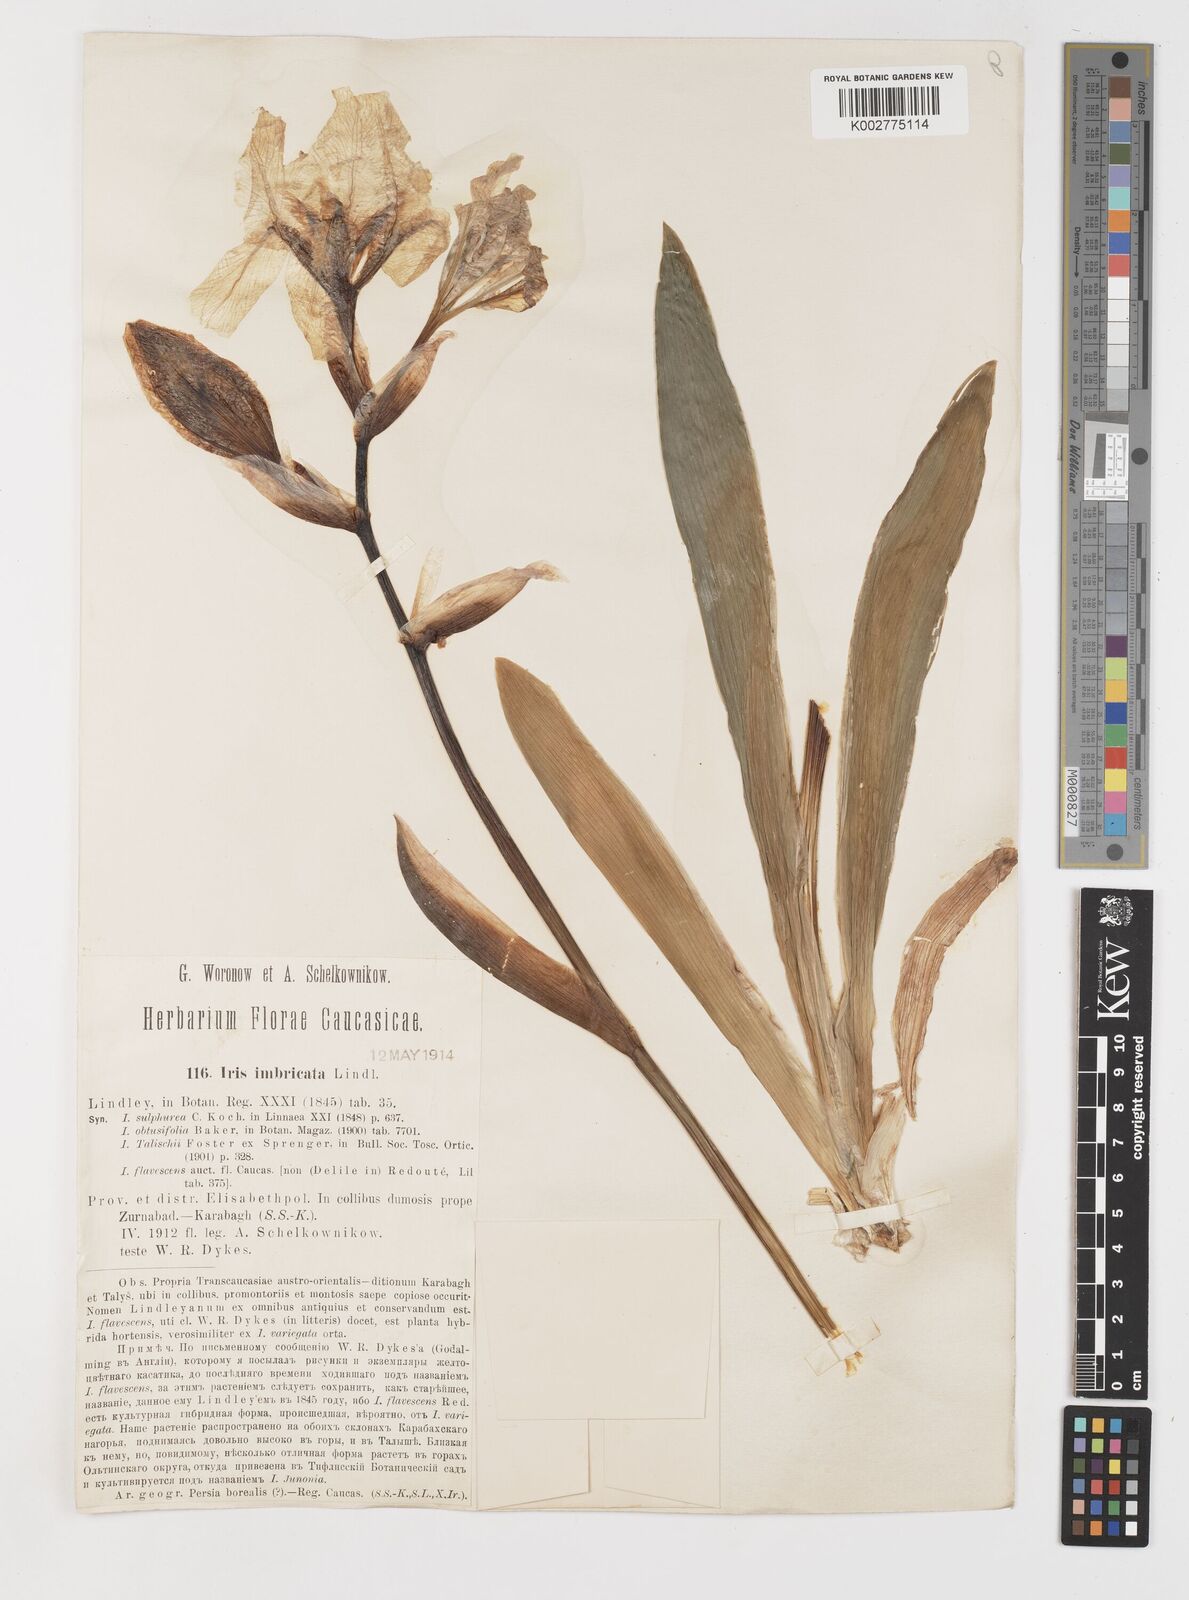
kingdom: Plantae
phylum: Tracheophyta
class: Liliopsida
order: Asparagales
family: Iridaceae
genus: Iris
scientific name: Iris imbricata
